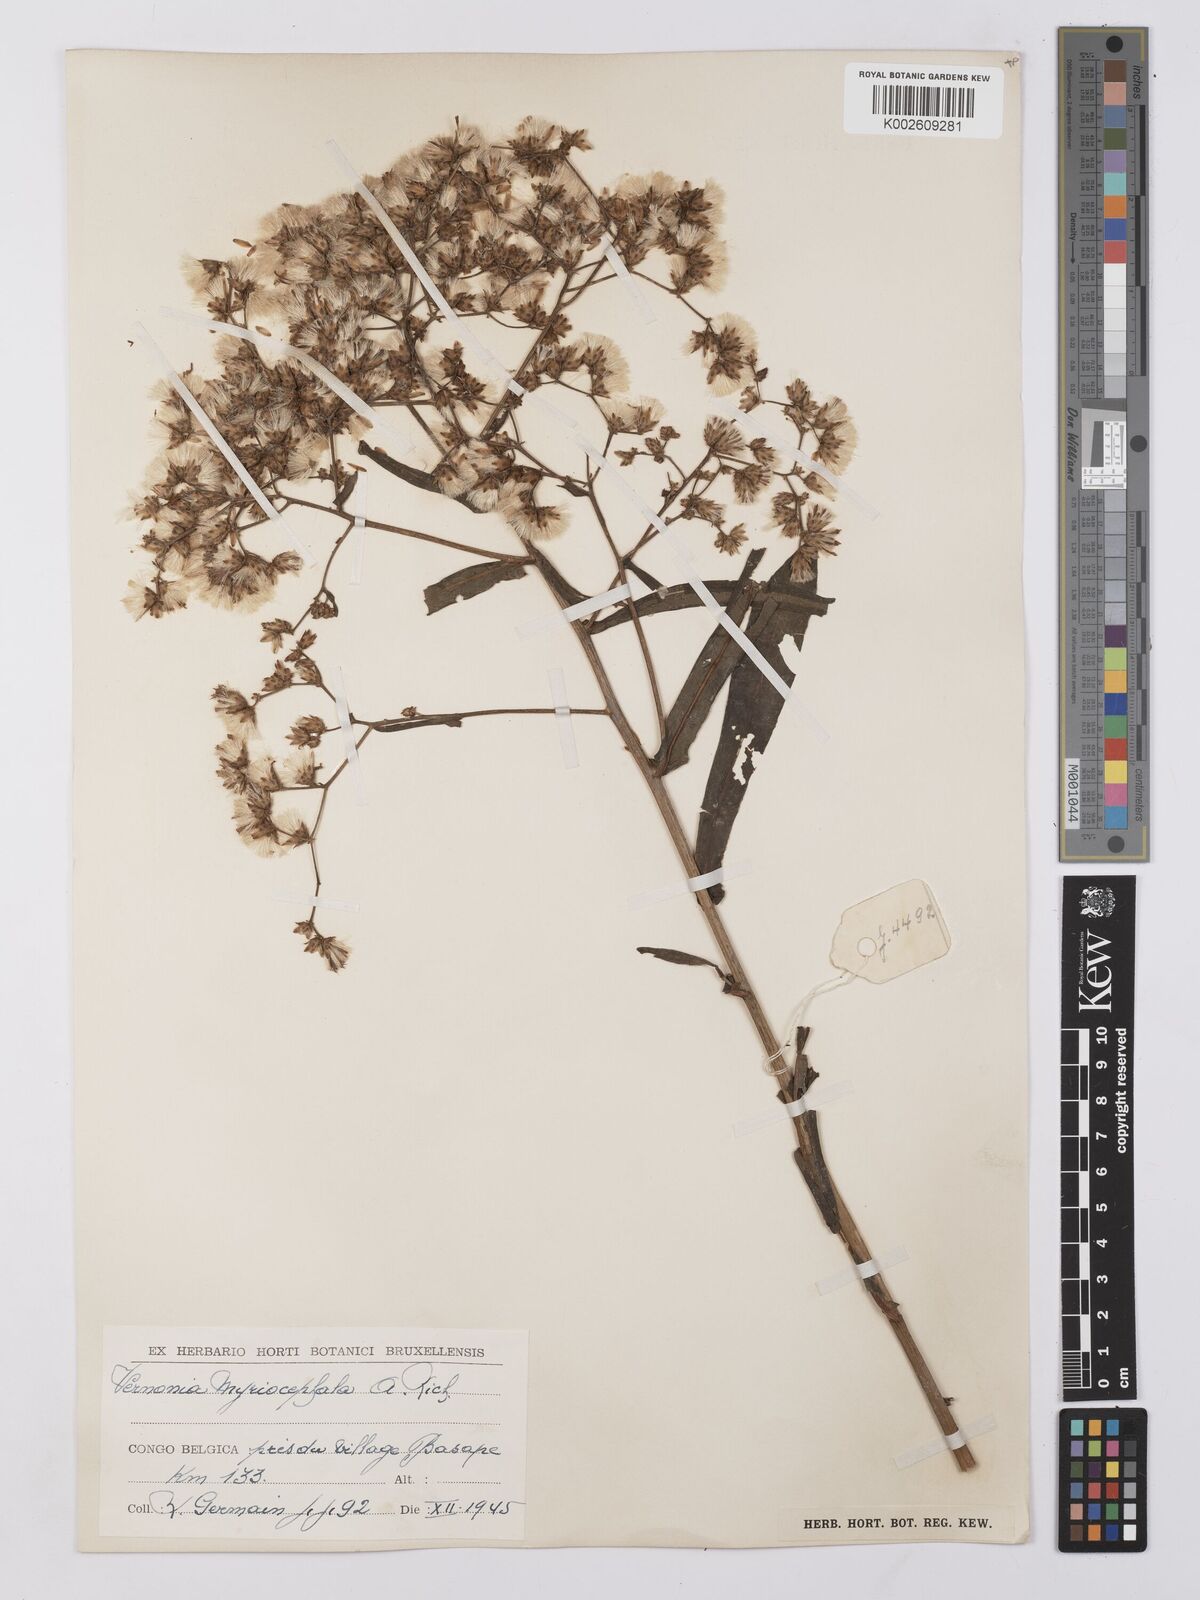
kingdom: Plantae
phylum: Tracheophyta
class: Magnoliopsida
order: Asterales
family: Asteraceae
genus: Gymnanthemum
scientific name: Gymnanthemum theophrastifolium
